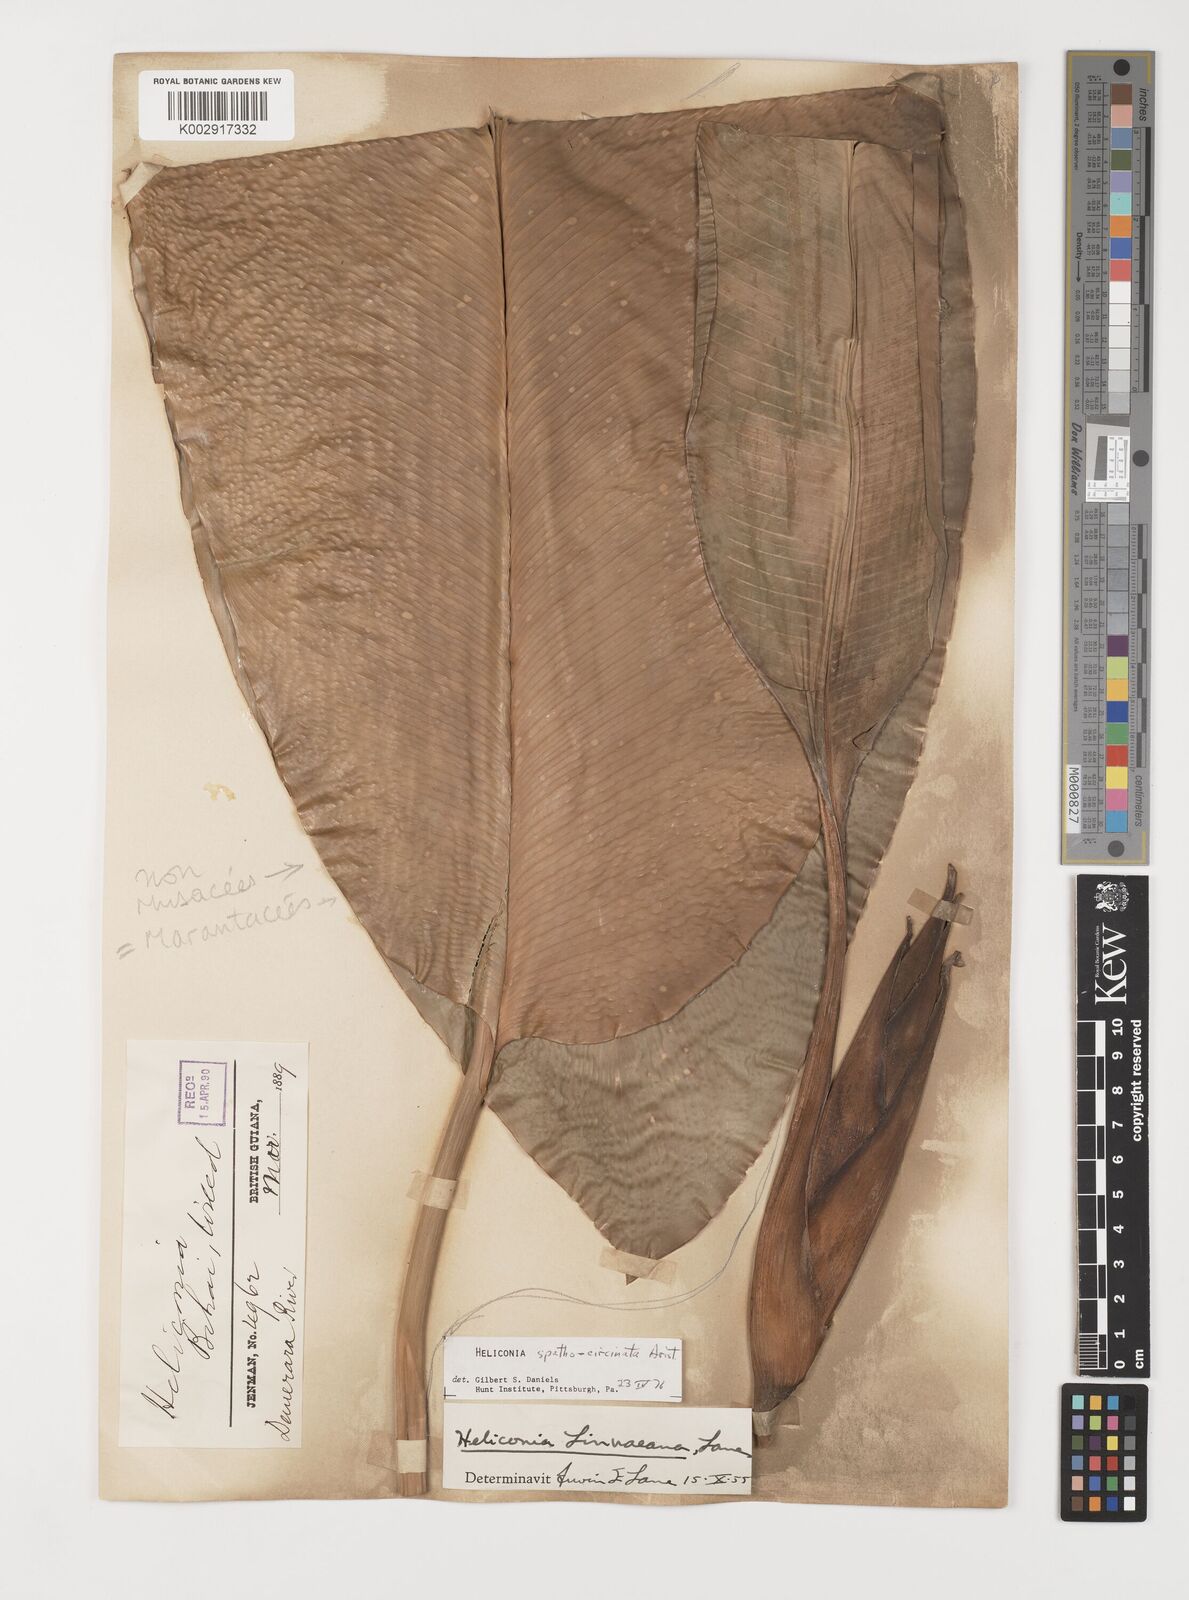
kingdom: Plantae
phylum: Tracheophyta
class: Liliopsida
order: Zingiberales
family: Heliconiaceae
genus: Heliconia
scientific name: Heliconia spathocircinata
